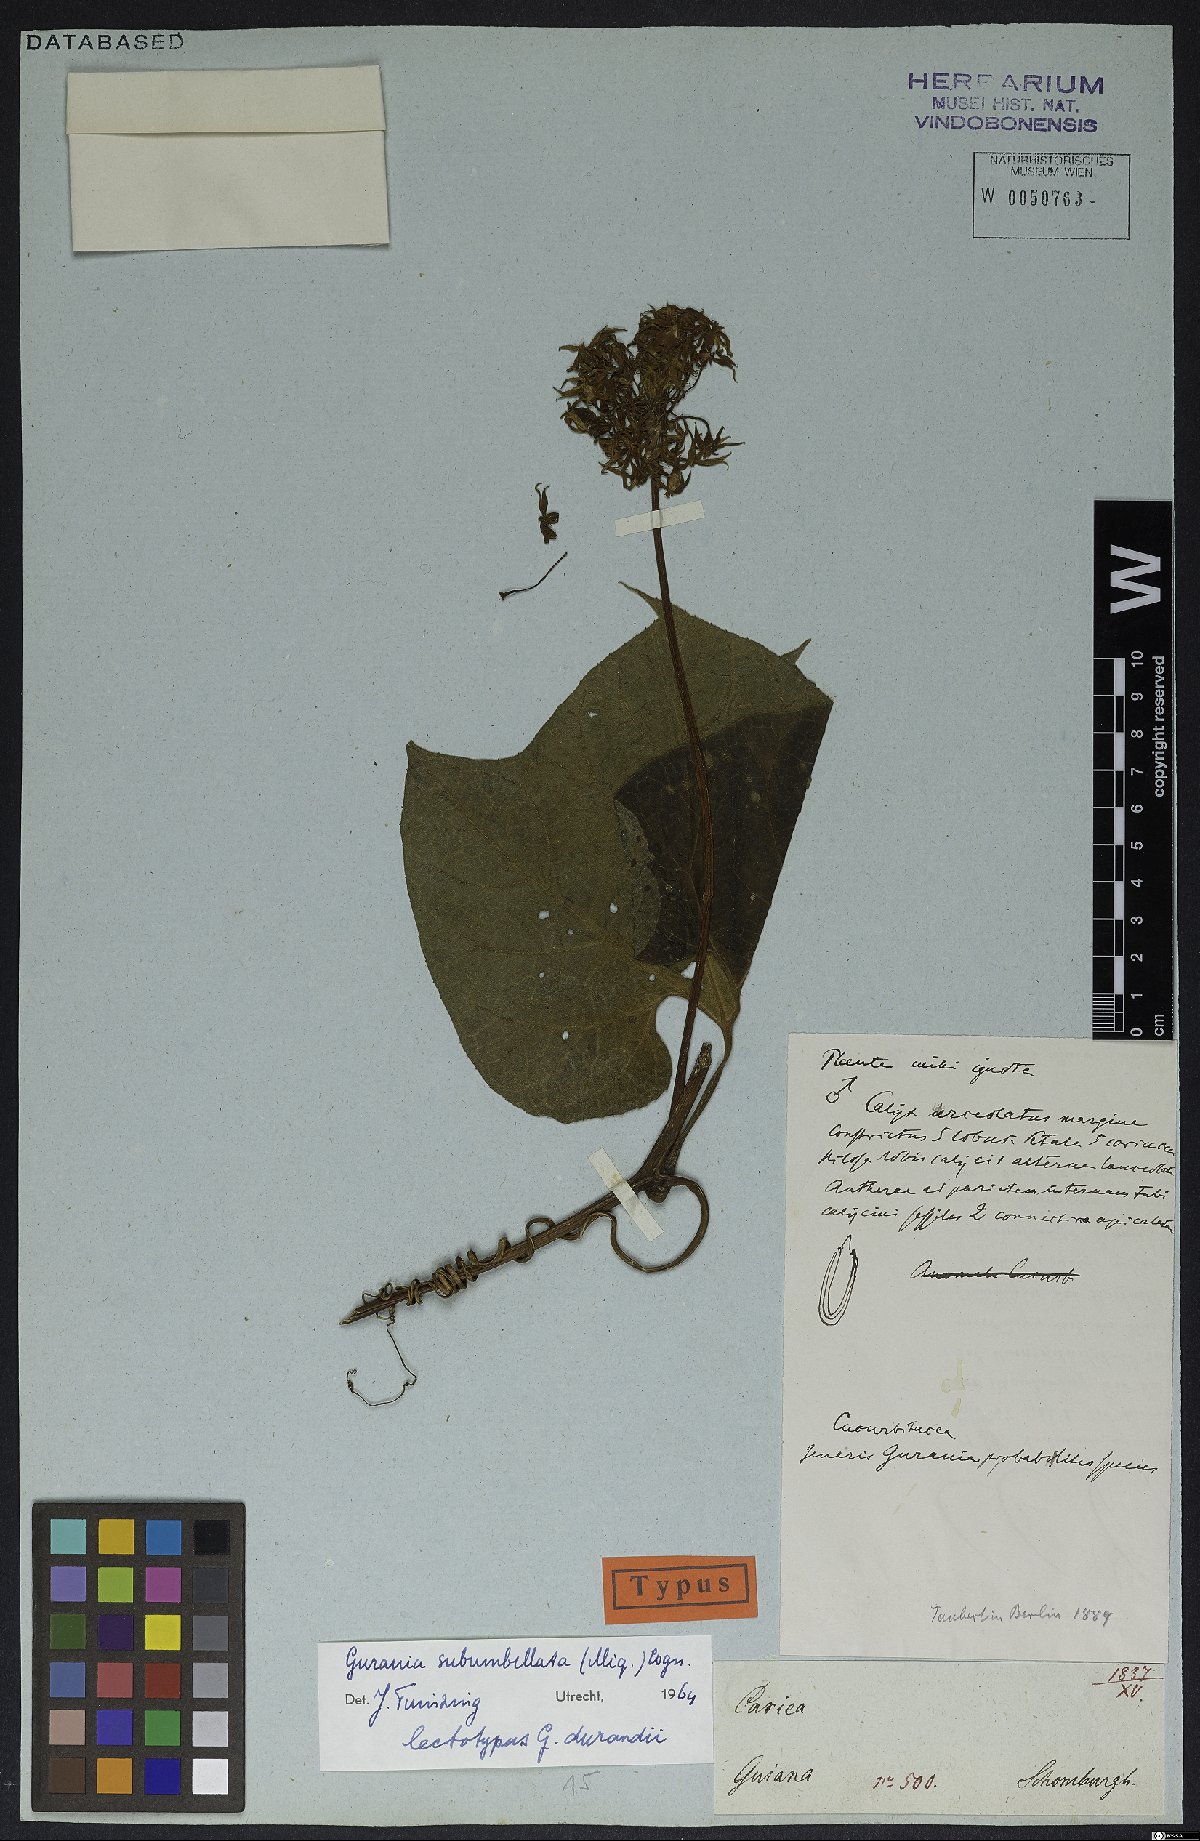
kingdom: Plantae
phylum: Tracheophyta
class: Magnoliopsida
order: Cucurbitales
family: Cucurbitaceae
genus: Gurania
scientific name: Gurania subumbellata
